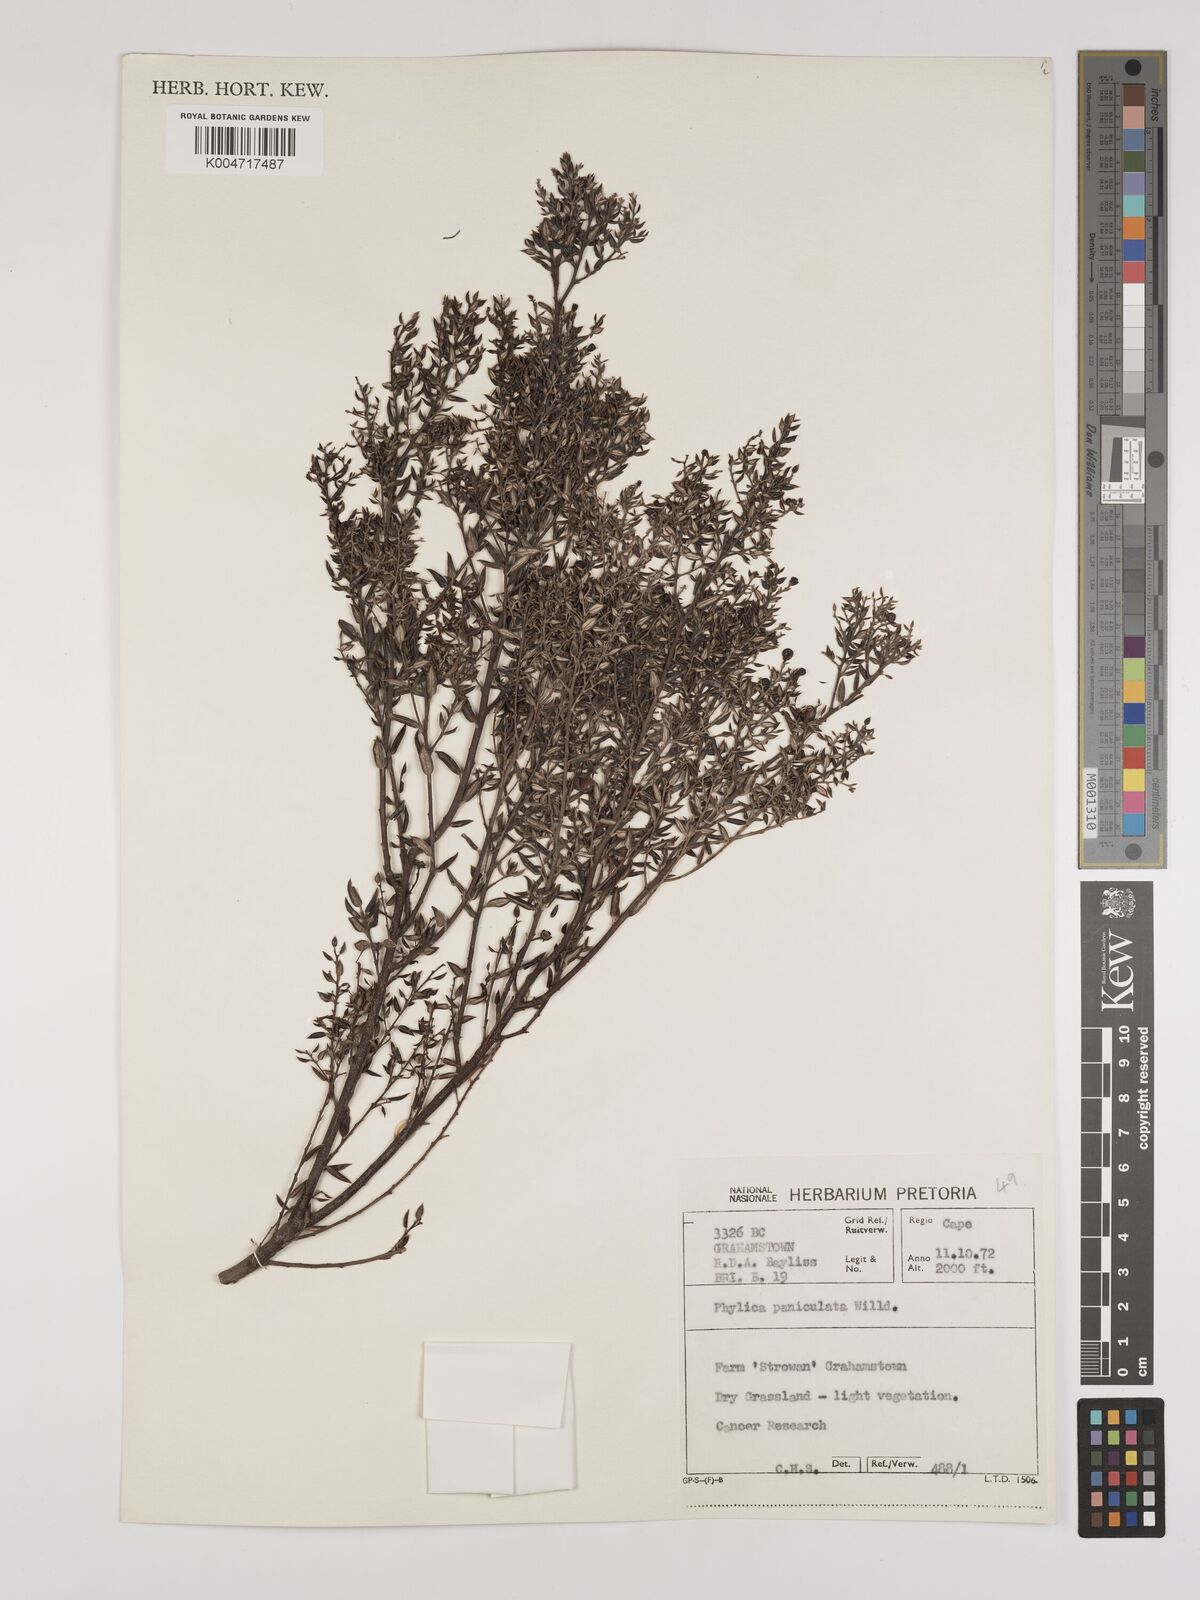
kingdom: Plantae
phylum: Tracheophyta
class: Magnoliopsida
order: Rosales
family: Rhamnaceae
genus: Phylica
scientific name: Phylica paniculata
